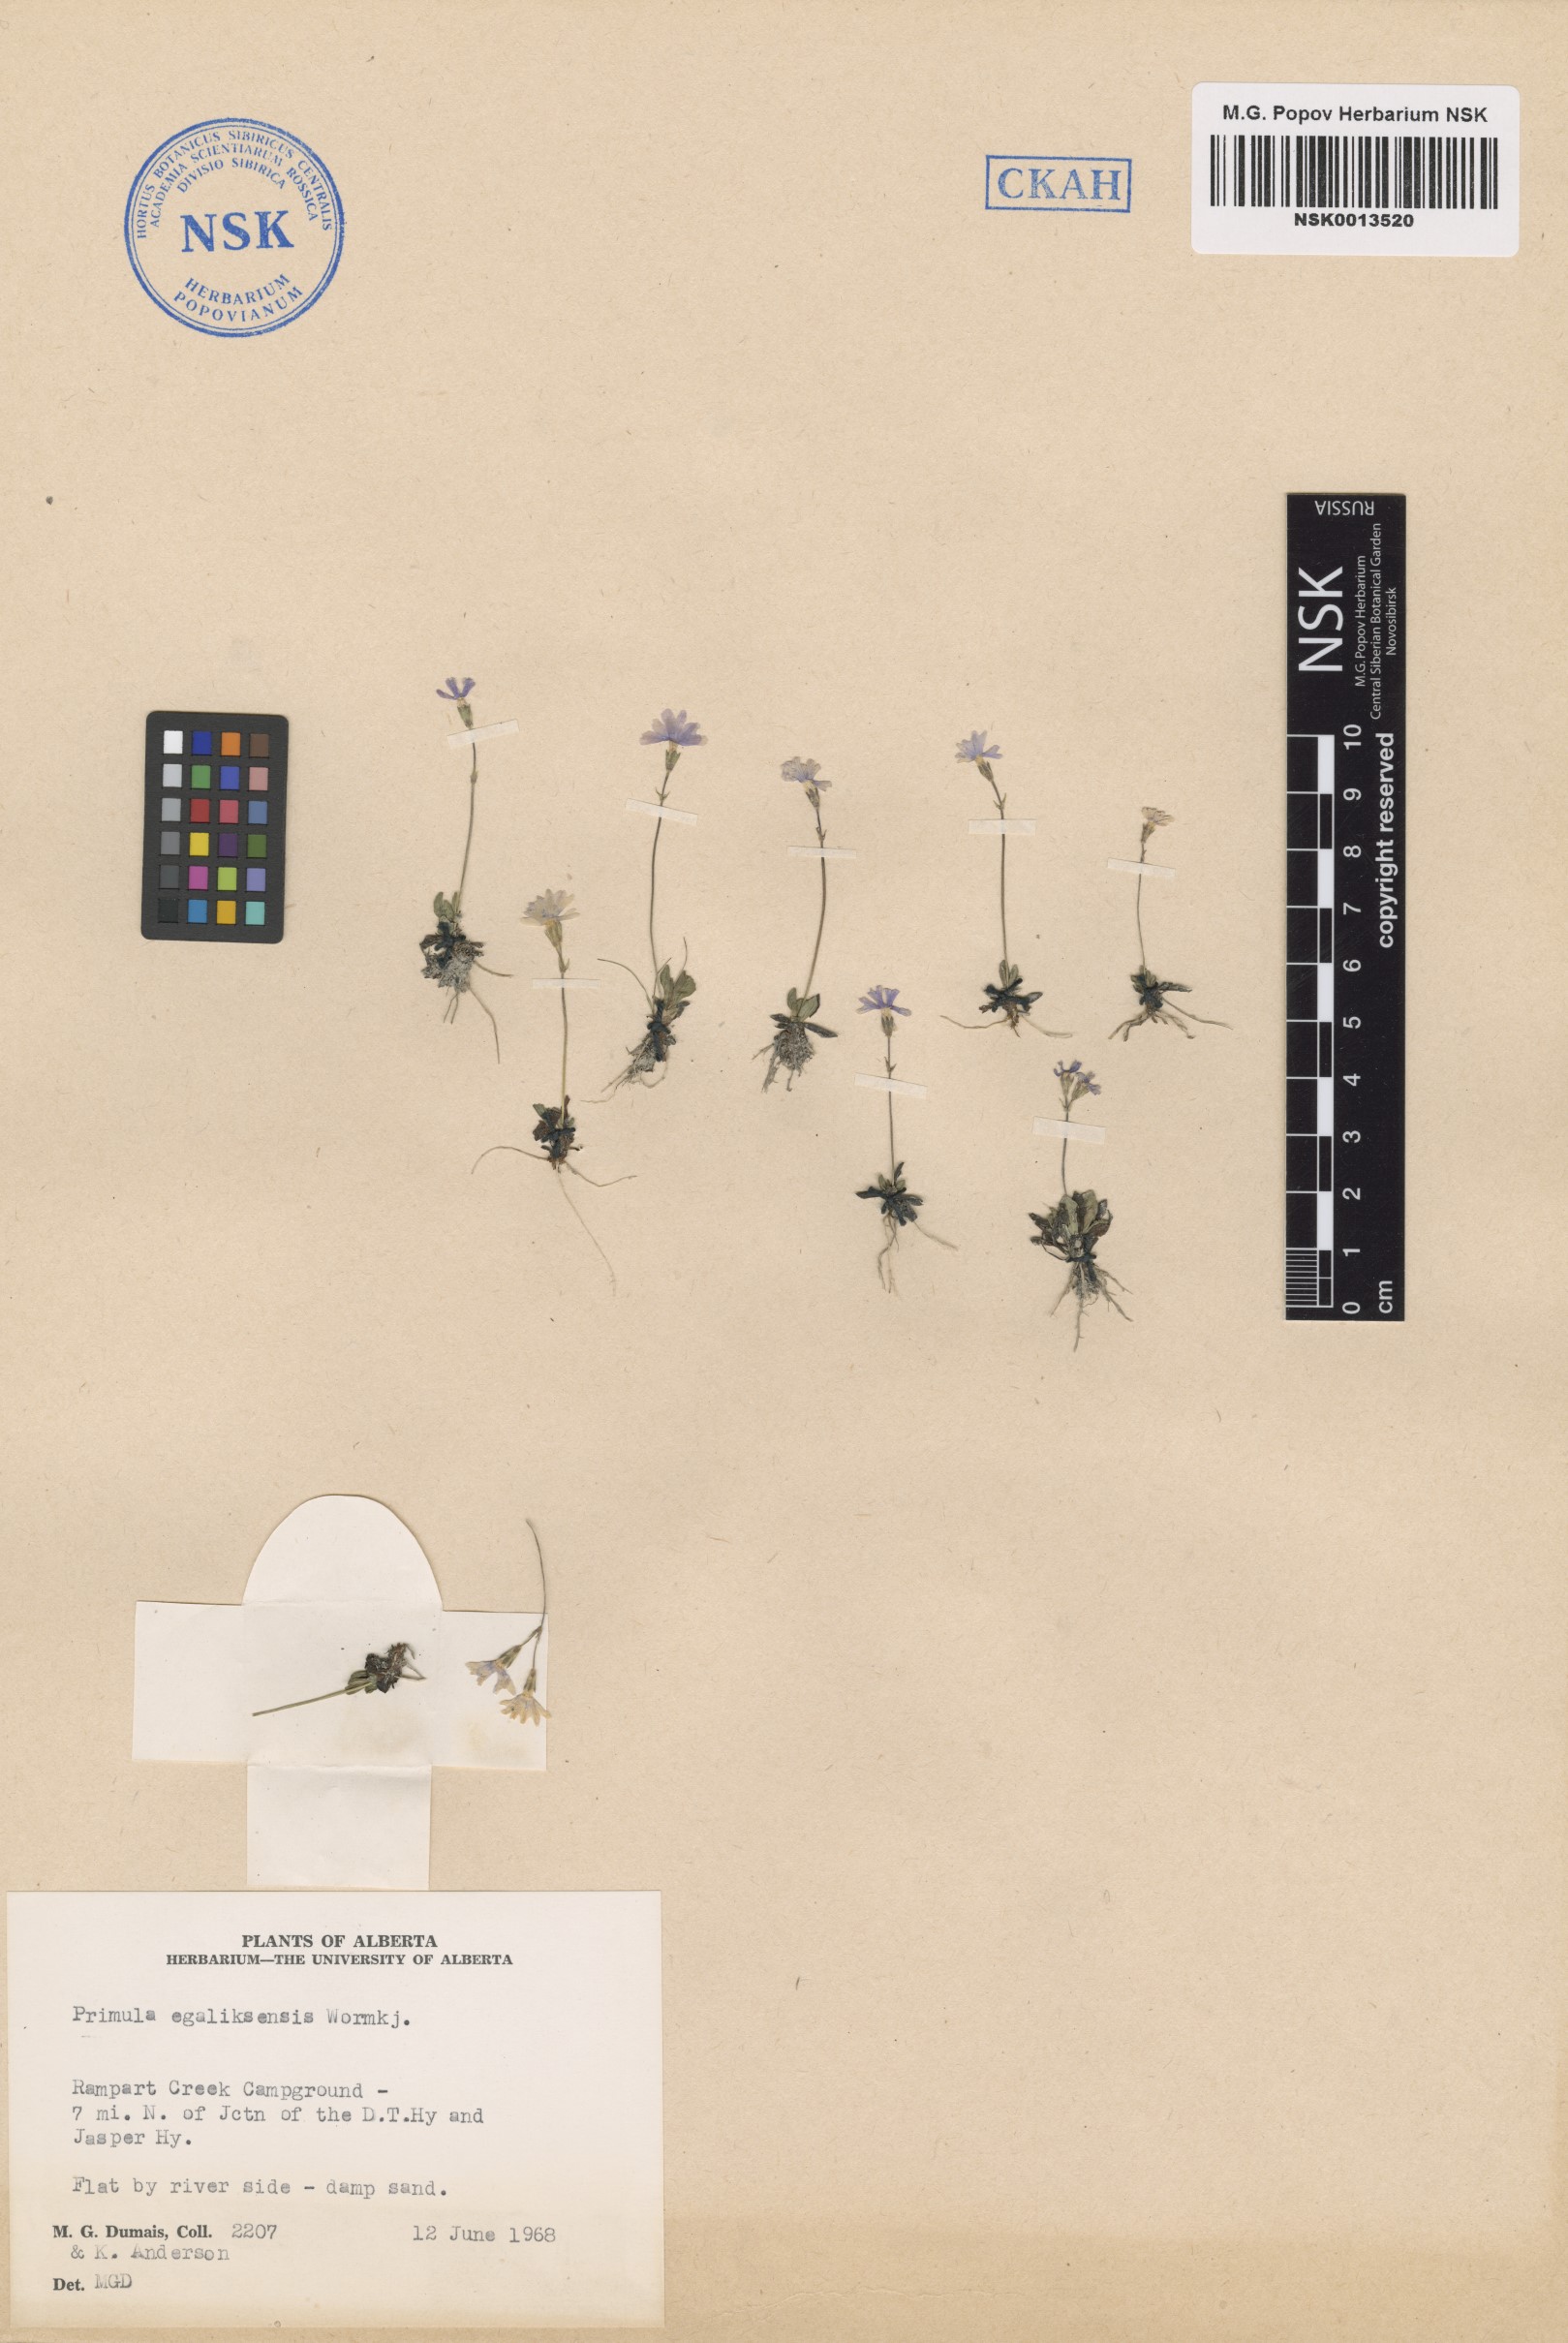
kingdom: Plantae
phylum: Tracheophyta
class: Magnoliopsida
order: Ericales
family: Primulaceae
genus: Primula
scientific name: Primula egaliksensis
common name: Greenland primrose
